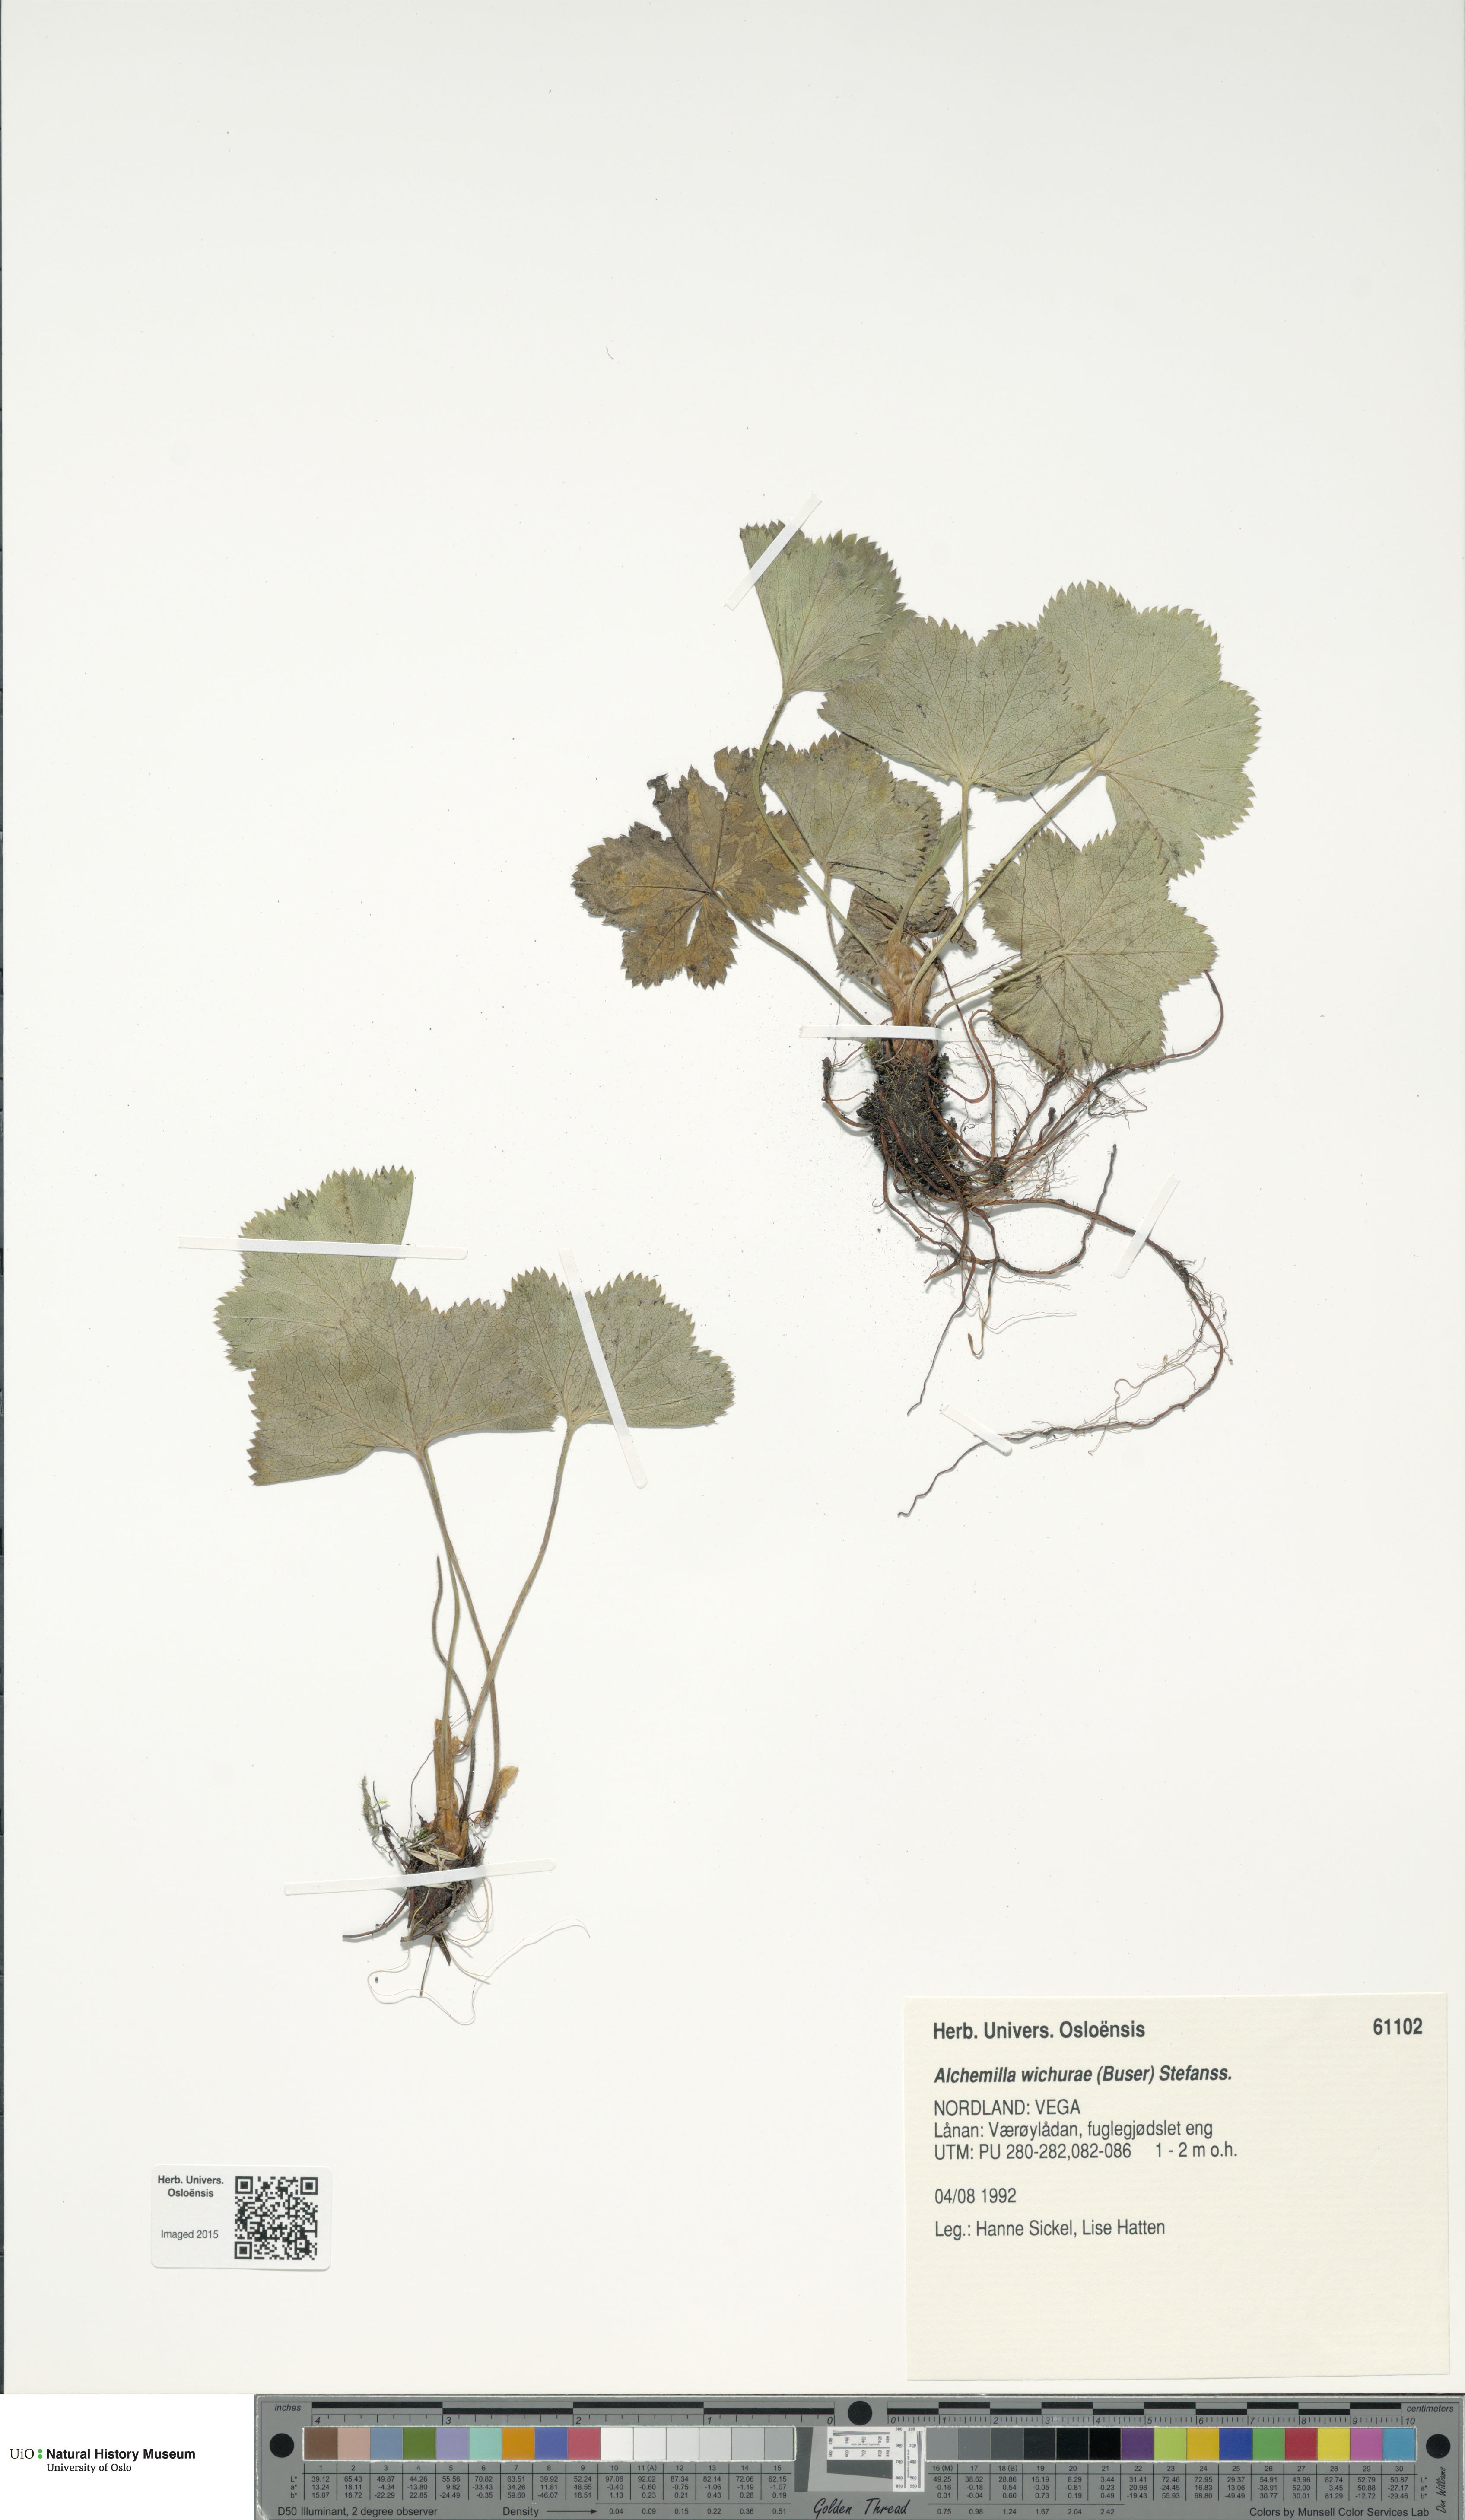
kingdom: Plantae
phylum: Tracheophyta
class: Magnoliopsida
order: Rosales
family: Rosaceae
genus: Alchemilla
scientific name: Alchemilla wichurae
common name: Rock lady's mantle
